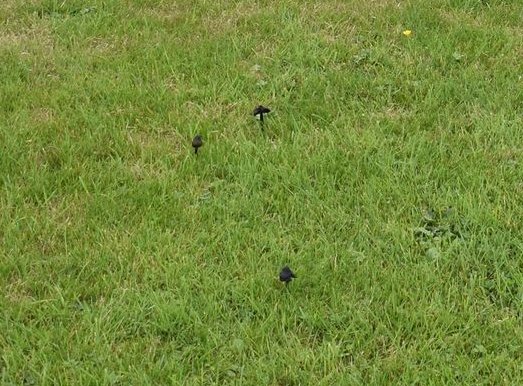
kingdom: Fungi
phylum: Basidiomycota
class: Agaricomycetes
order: Agaricales
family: Hygrophoraceae
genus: Hygrocybe
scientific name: Hygrocybe conica
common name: kegle-vokshat
